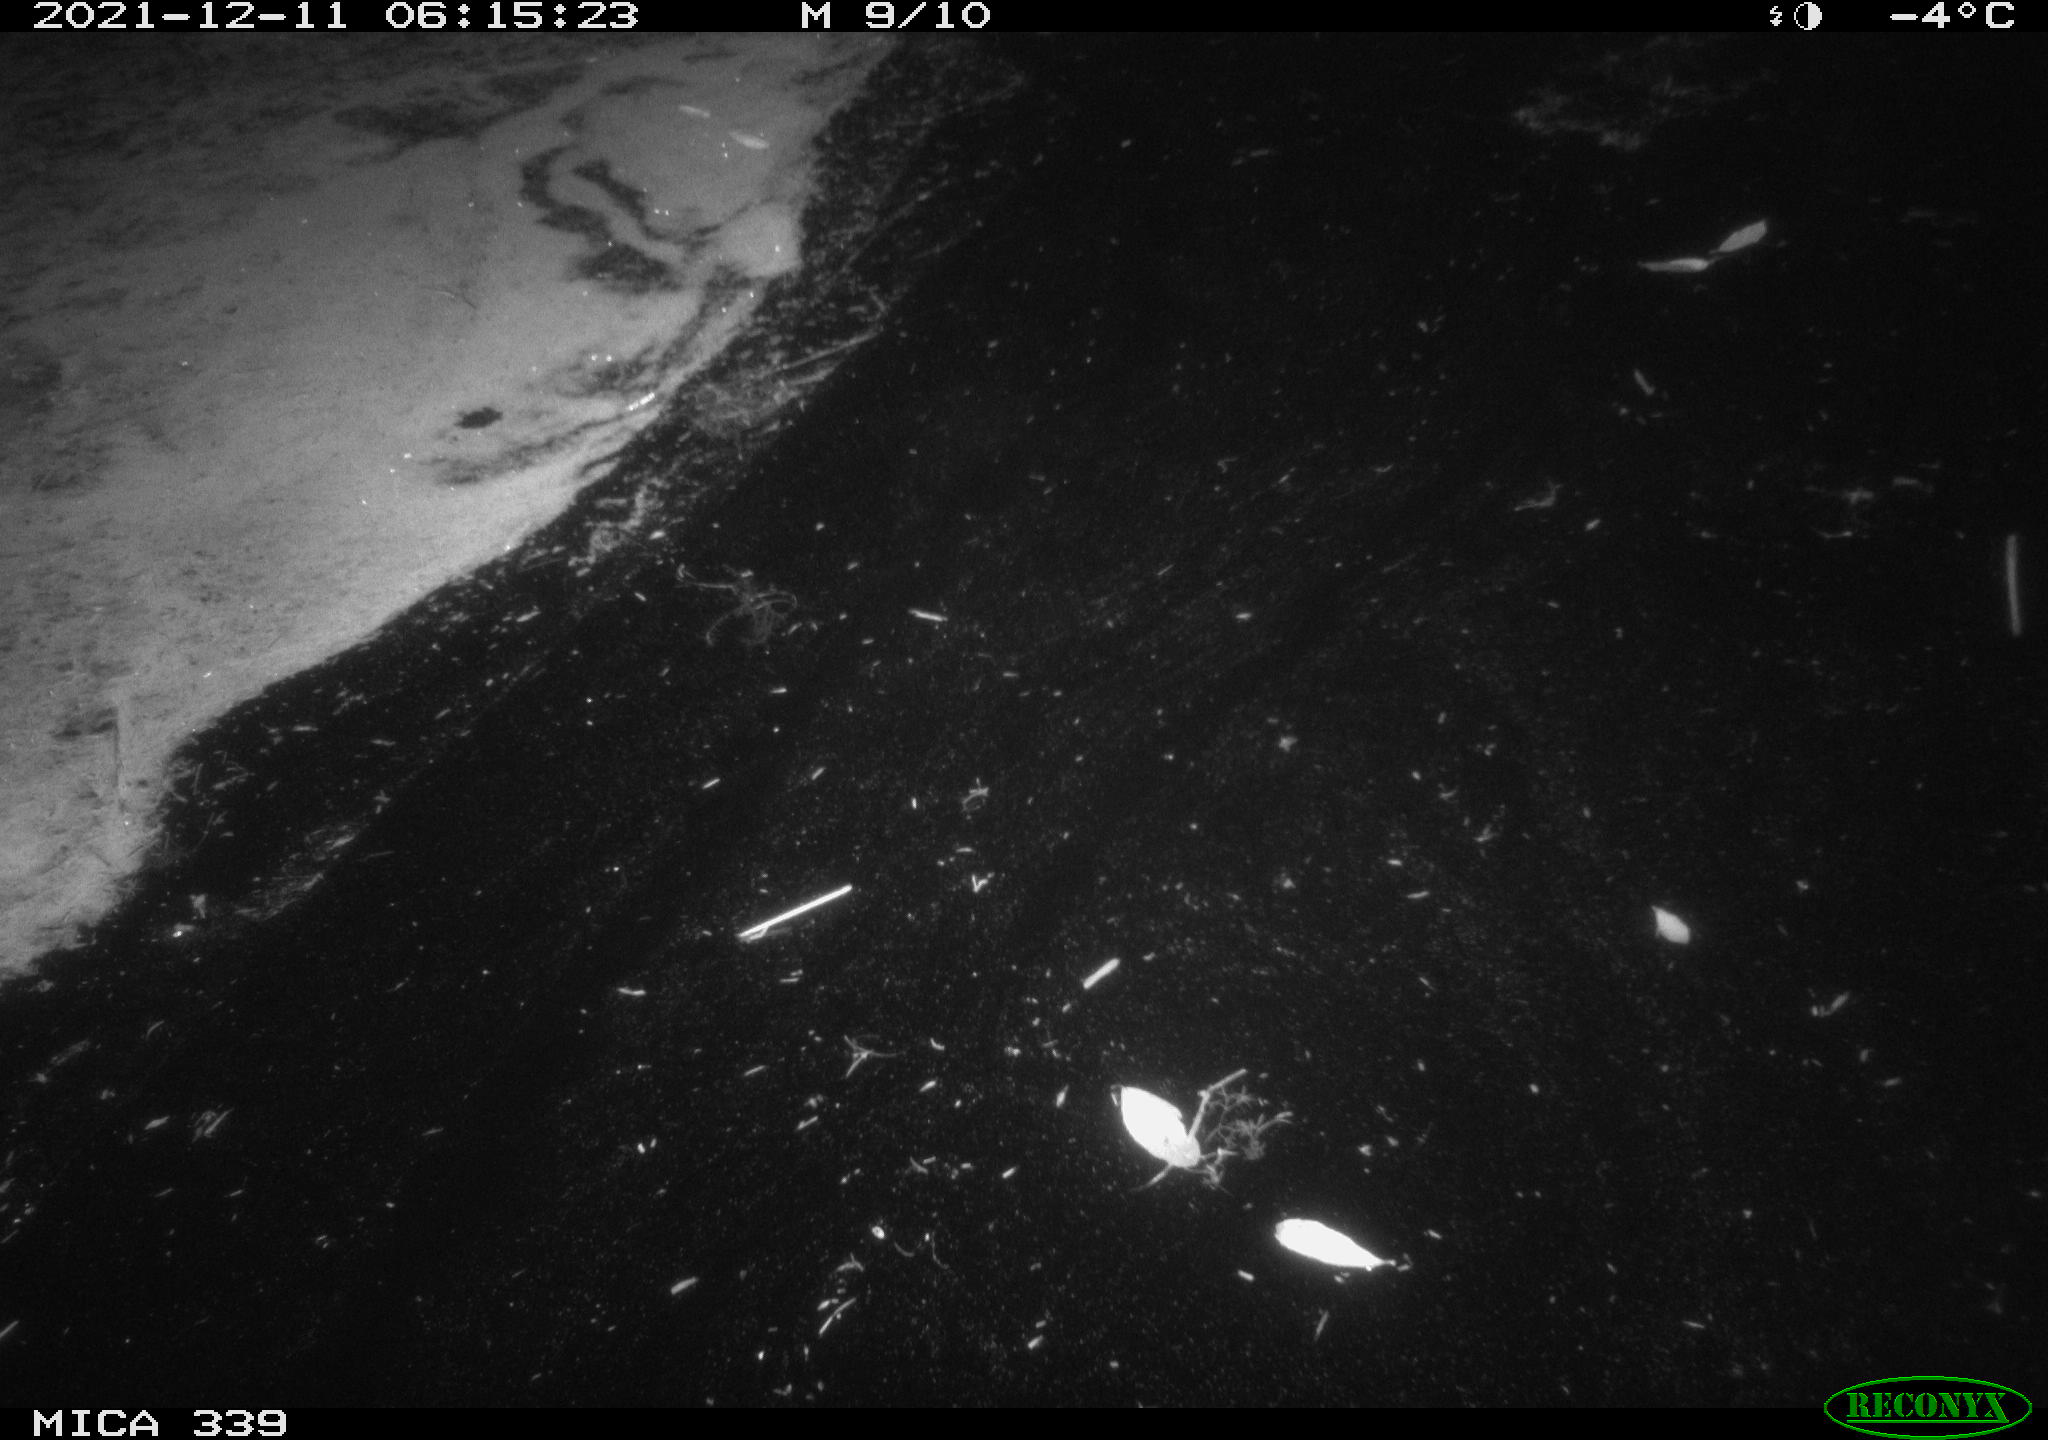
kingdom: Animalia
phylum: Chordata
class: Mammalia
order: Rodentia
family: Muridae
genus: Rattus
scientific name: Rattus norvegicus
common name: Brown rat
